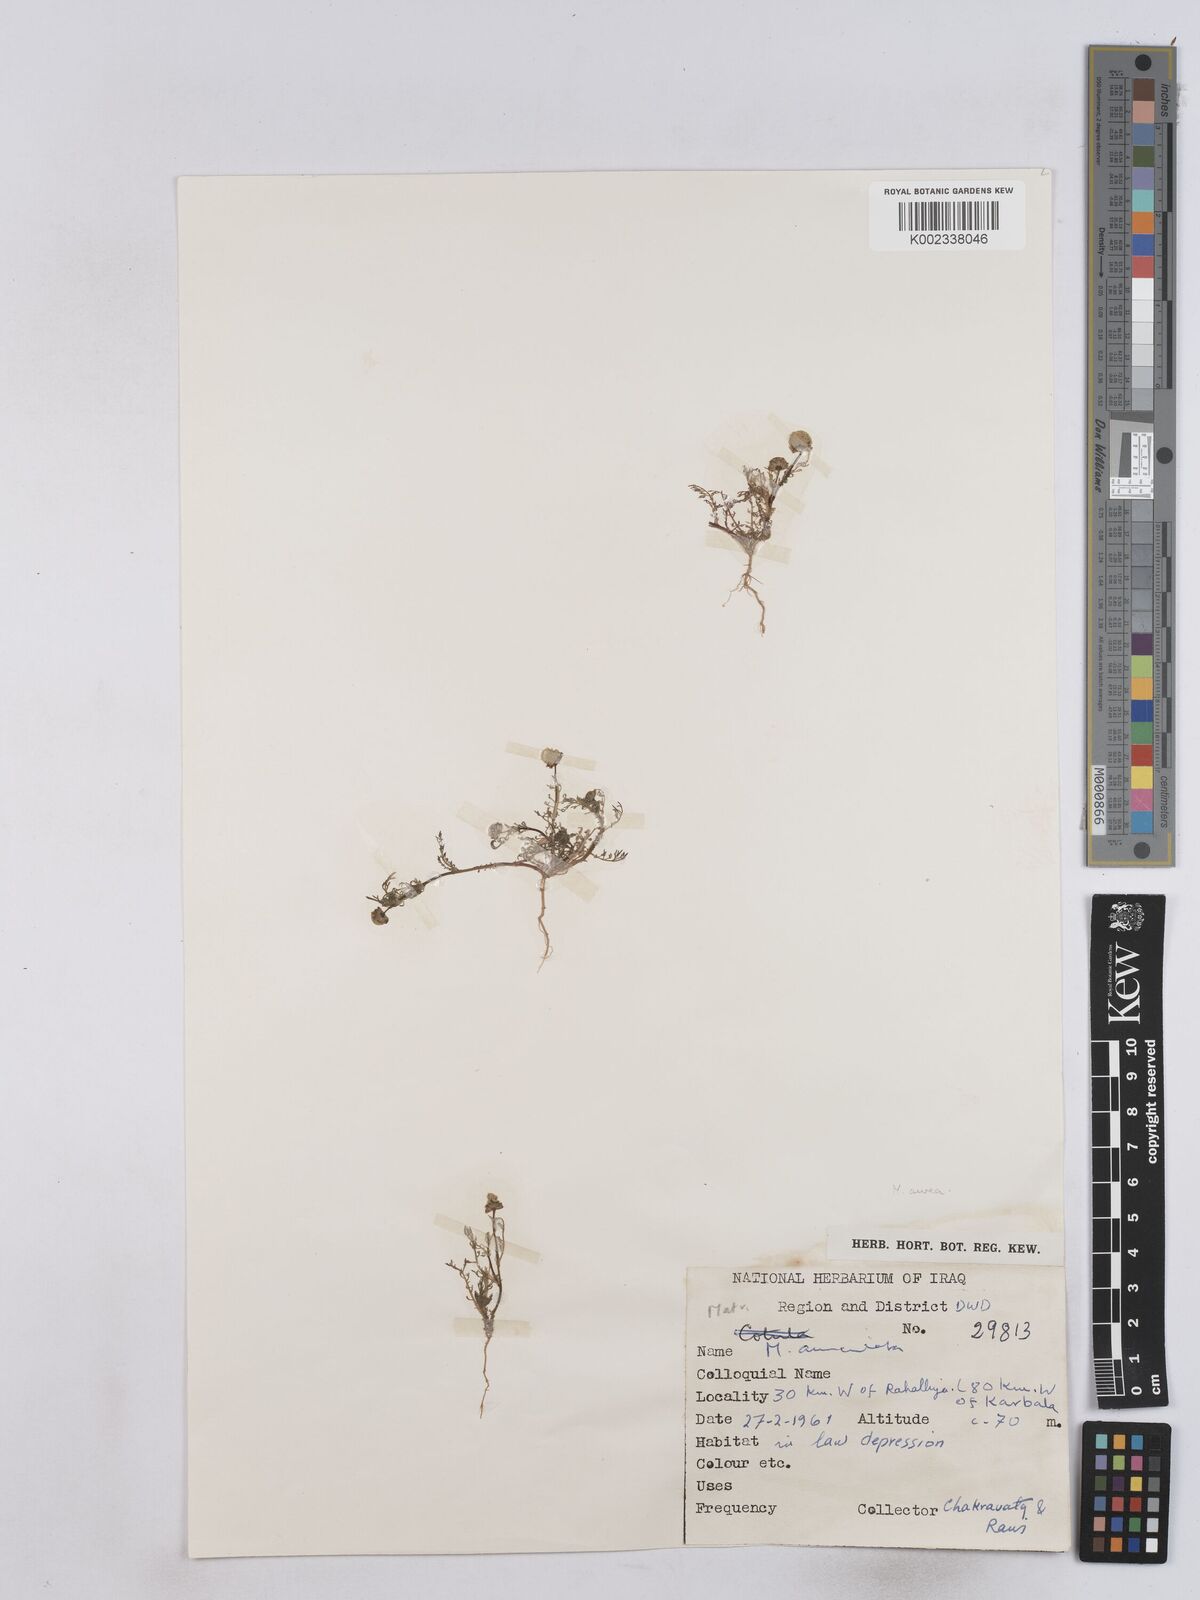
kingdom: Plantae
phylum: Tracheophyta
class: Magnoliopsida
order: Asterales
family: Asteraceae
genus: Matricaria
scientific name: Matricaria aurea
